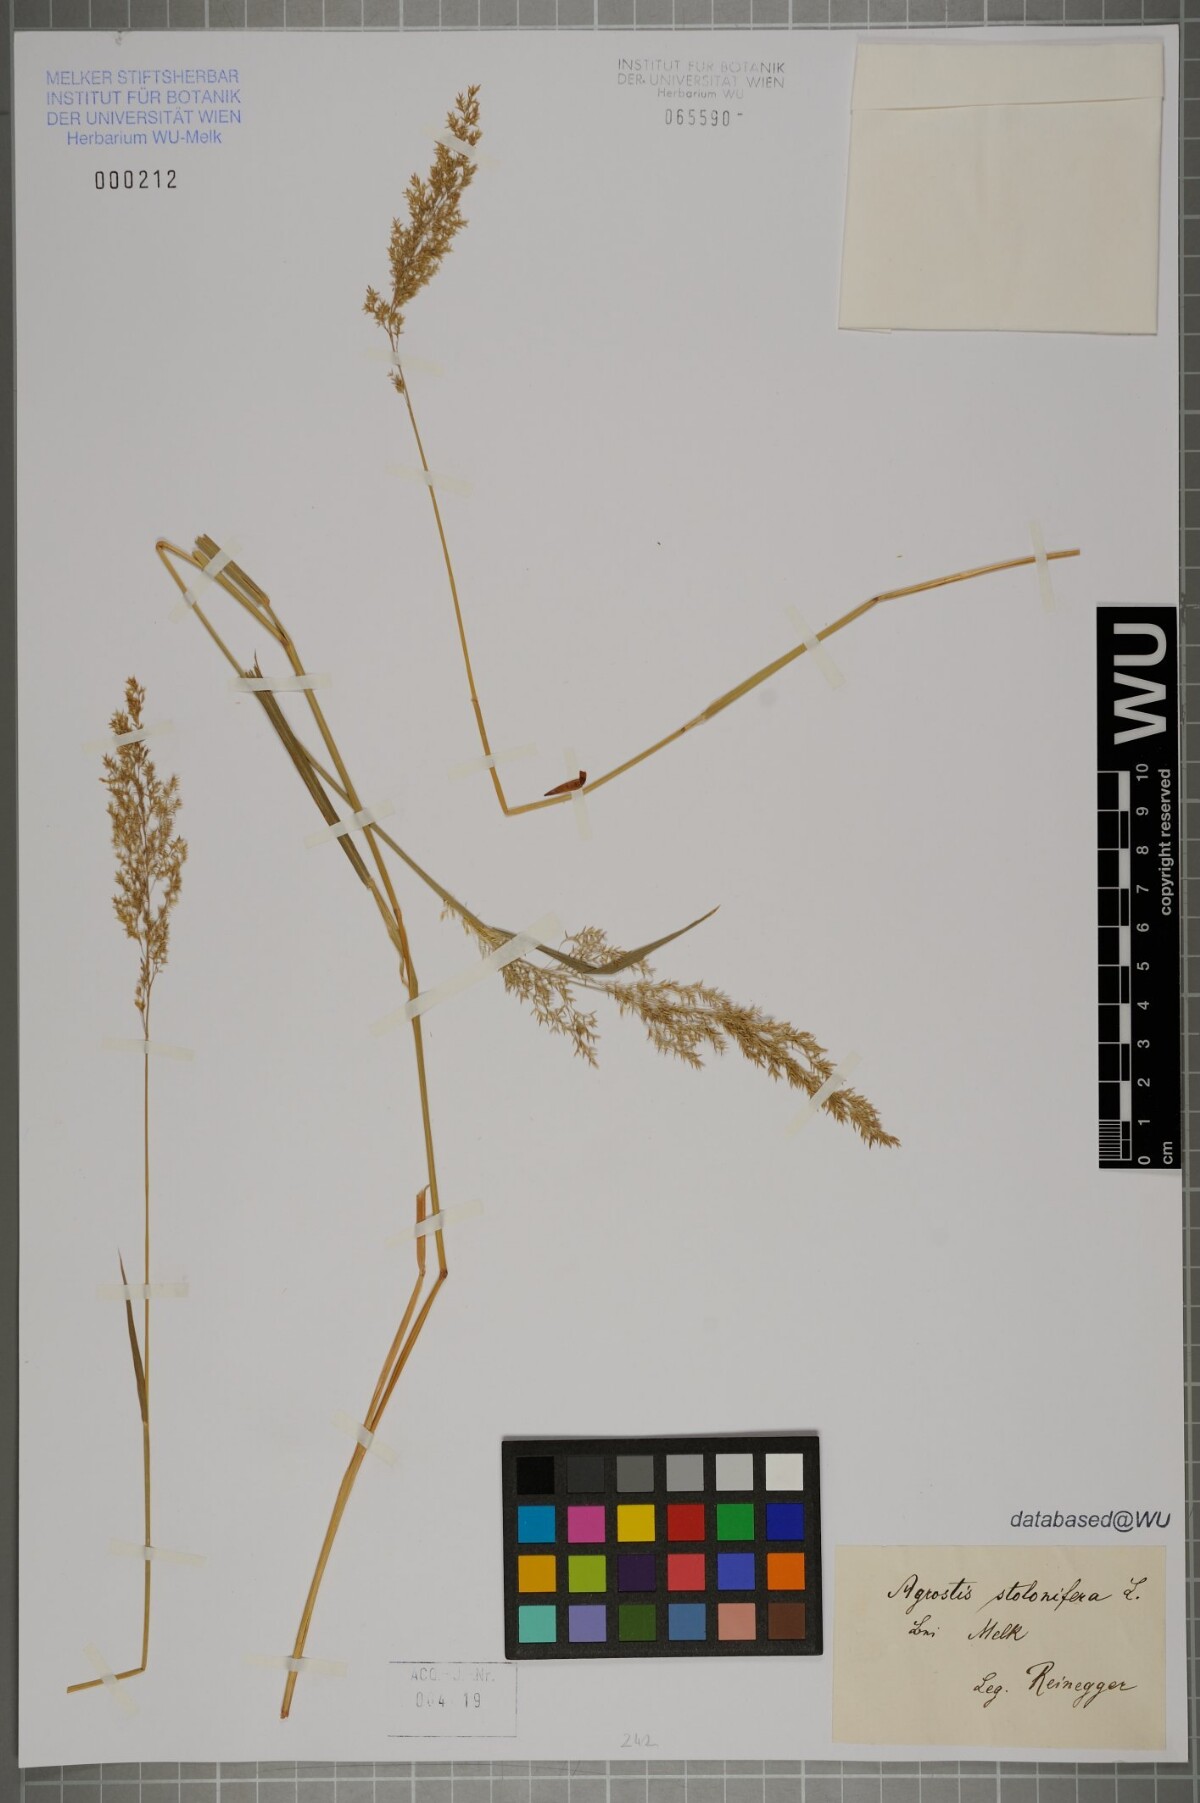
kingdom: Plantae
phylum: Tracheophyta
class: Liliopsida
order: Poales
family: Poaceae
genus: Agrostis
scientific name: Agrostis stolonifera
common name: Creeping bentgrass
